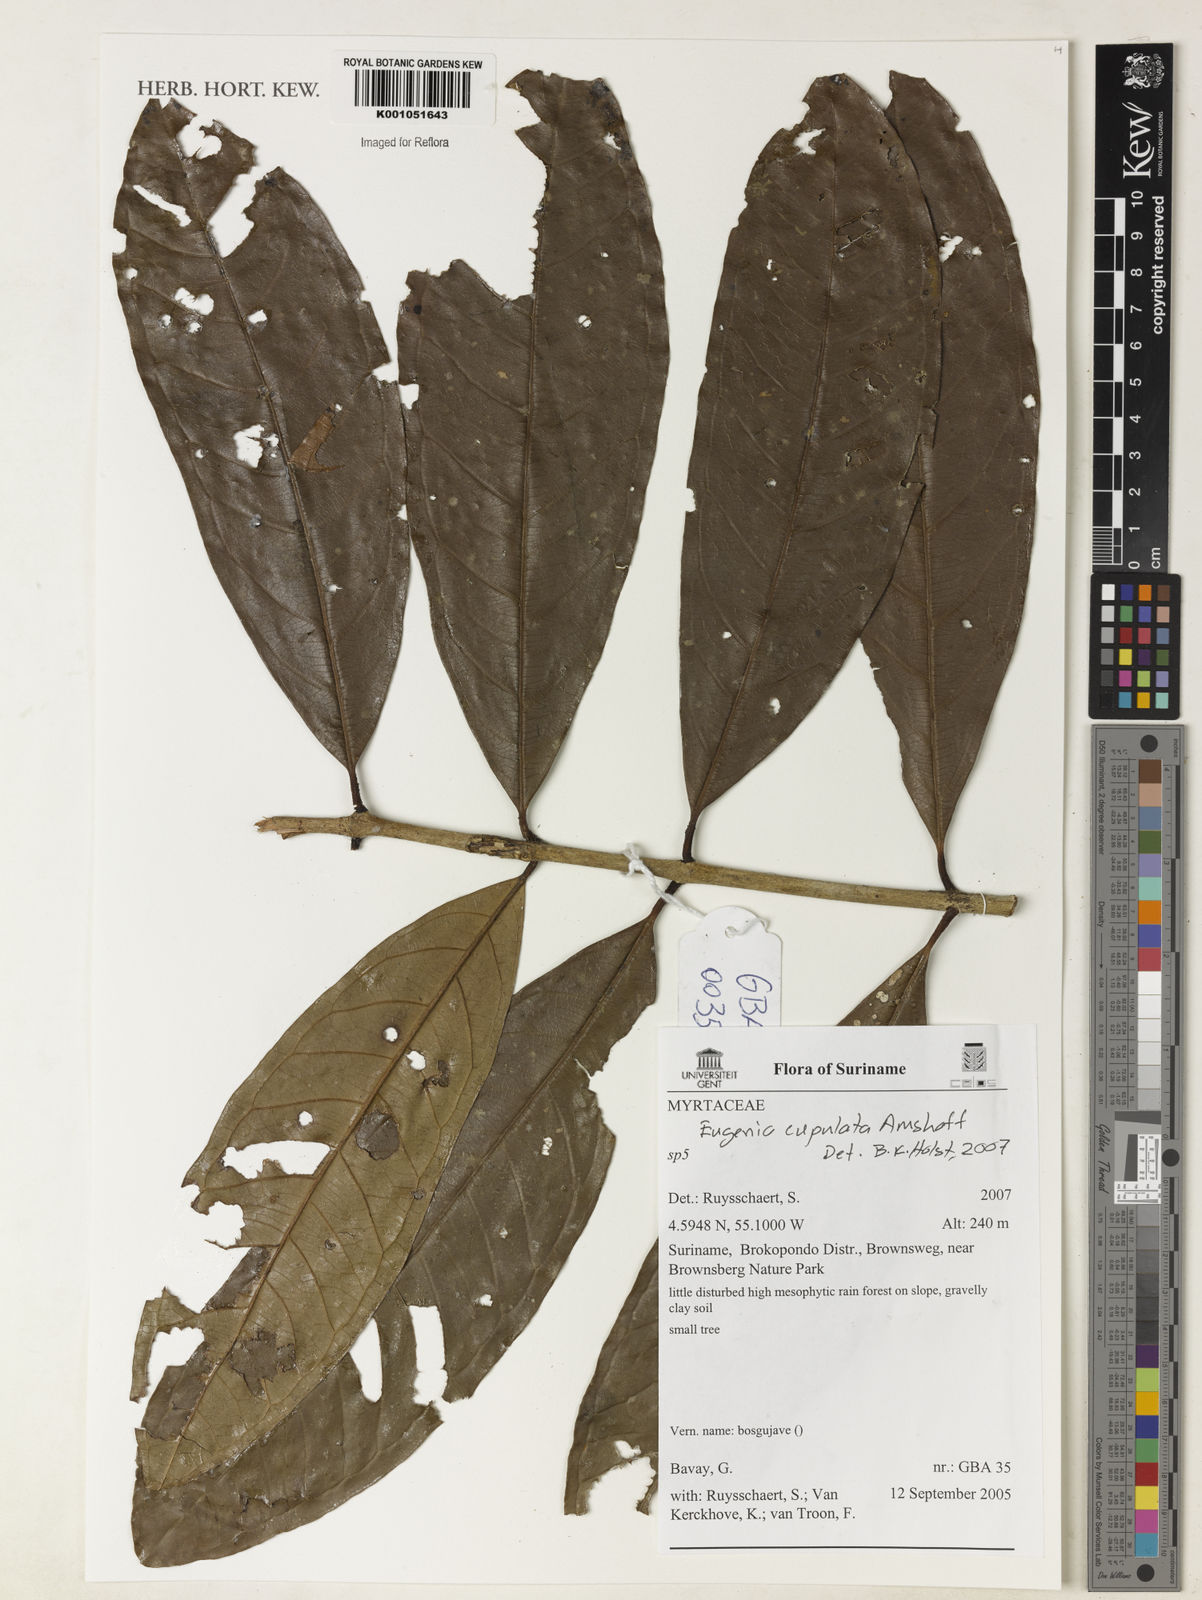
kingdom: Plantae
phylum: Tracheophyta
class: Magnoliopsida
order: Myrtales
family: Myrtaceae
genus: Eugenia
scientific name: Eugenia cupulata
